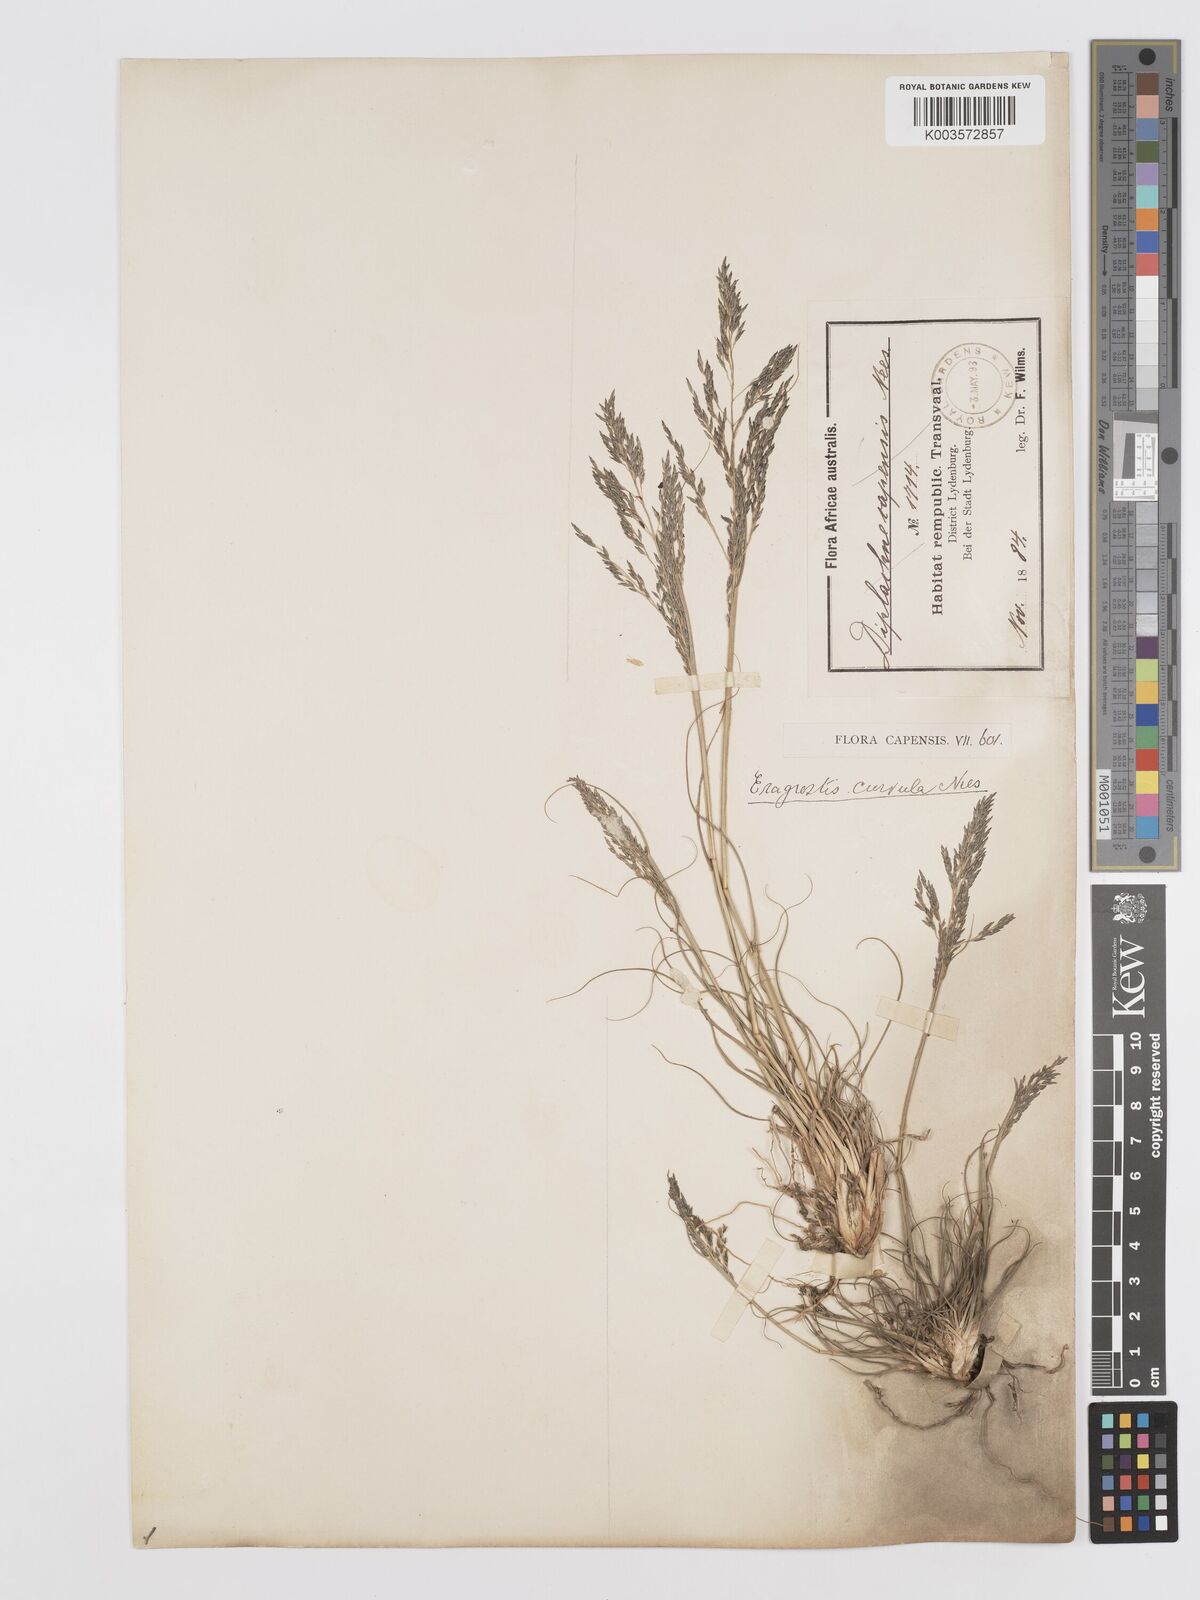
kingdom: Plantae
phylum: Tracheophyta
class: Liliopsida
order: Poales
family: Poaceae
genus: Eragrostis
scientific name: Eragrostis curvula
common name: African love-grass
